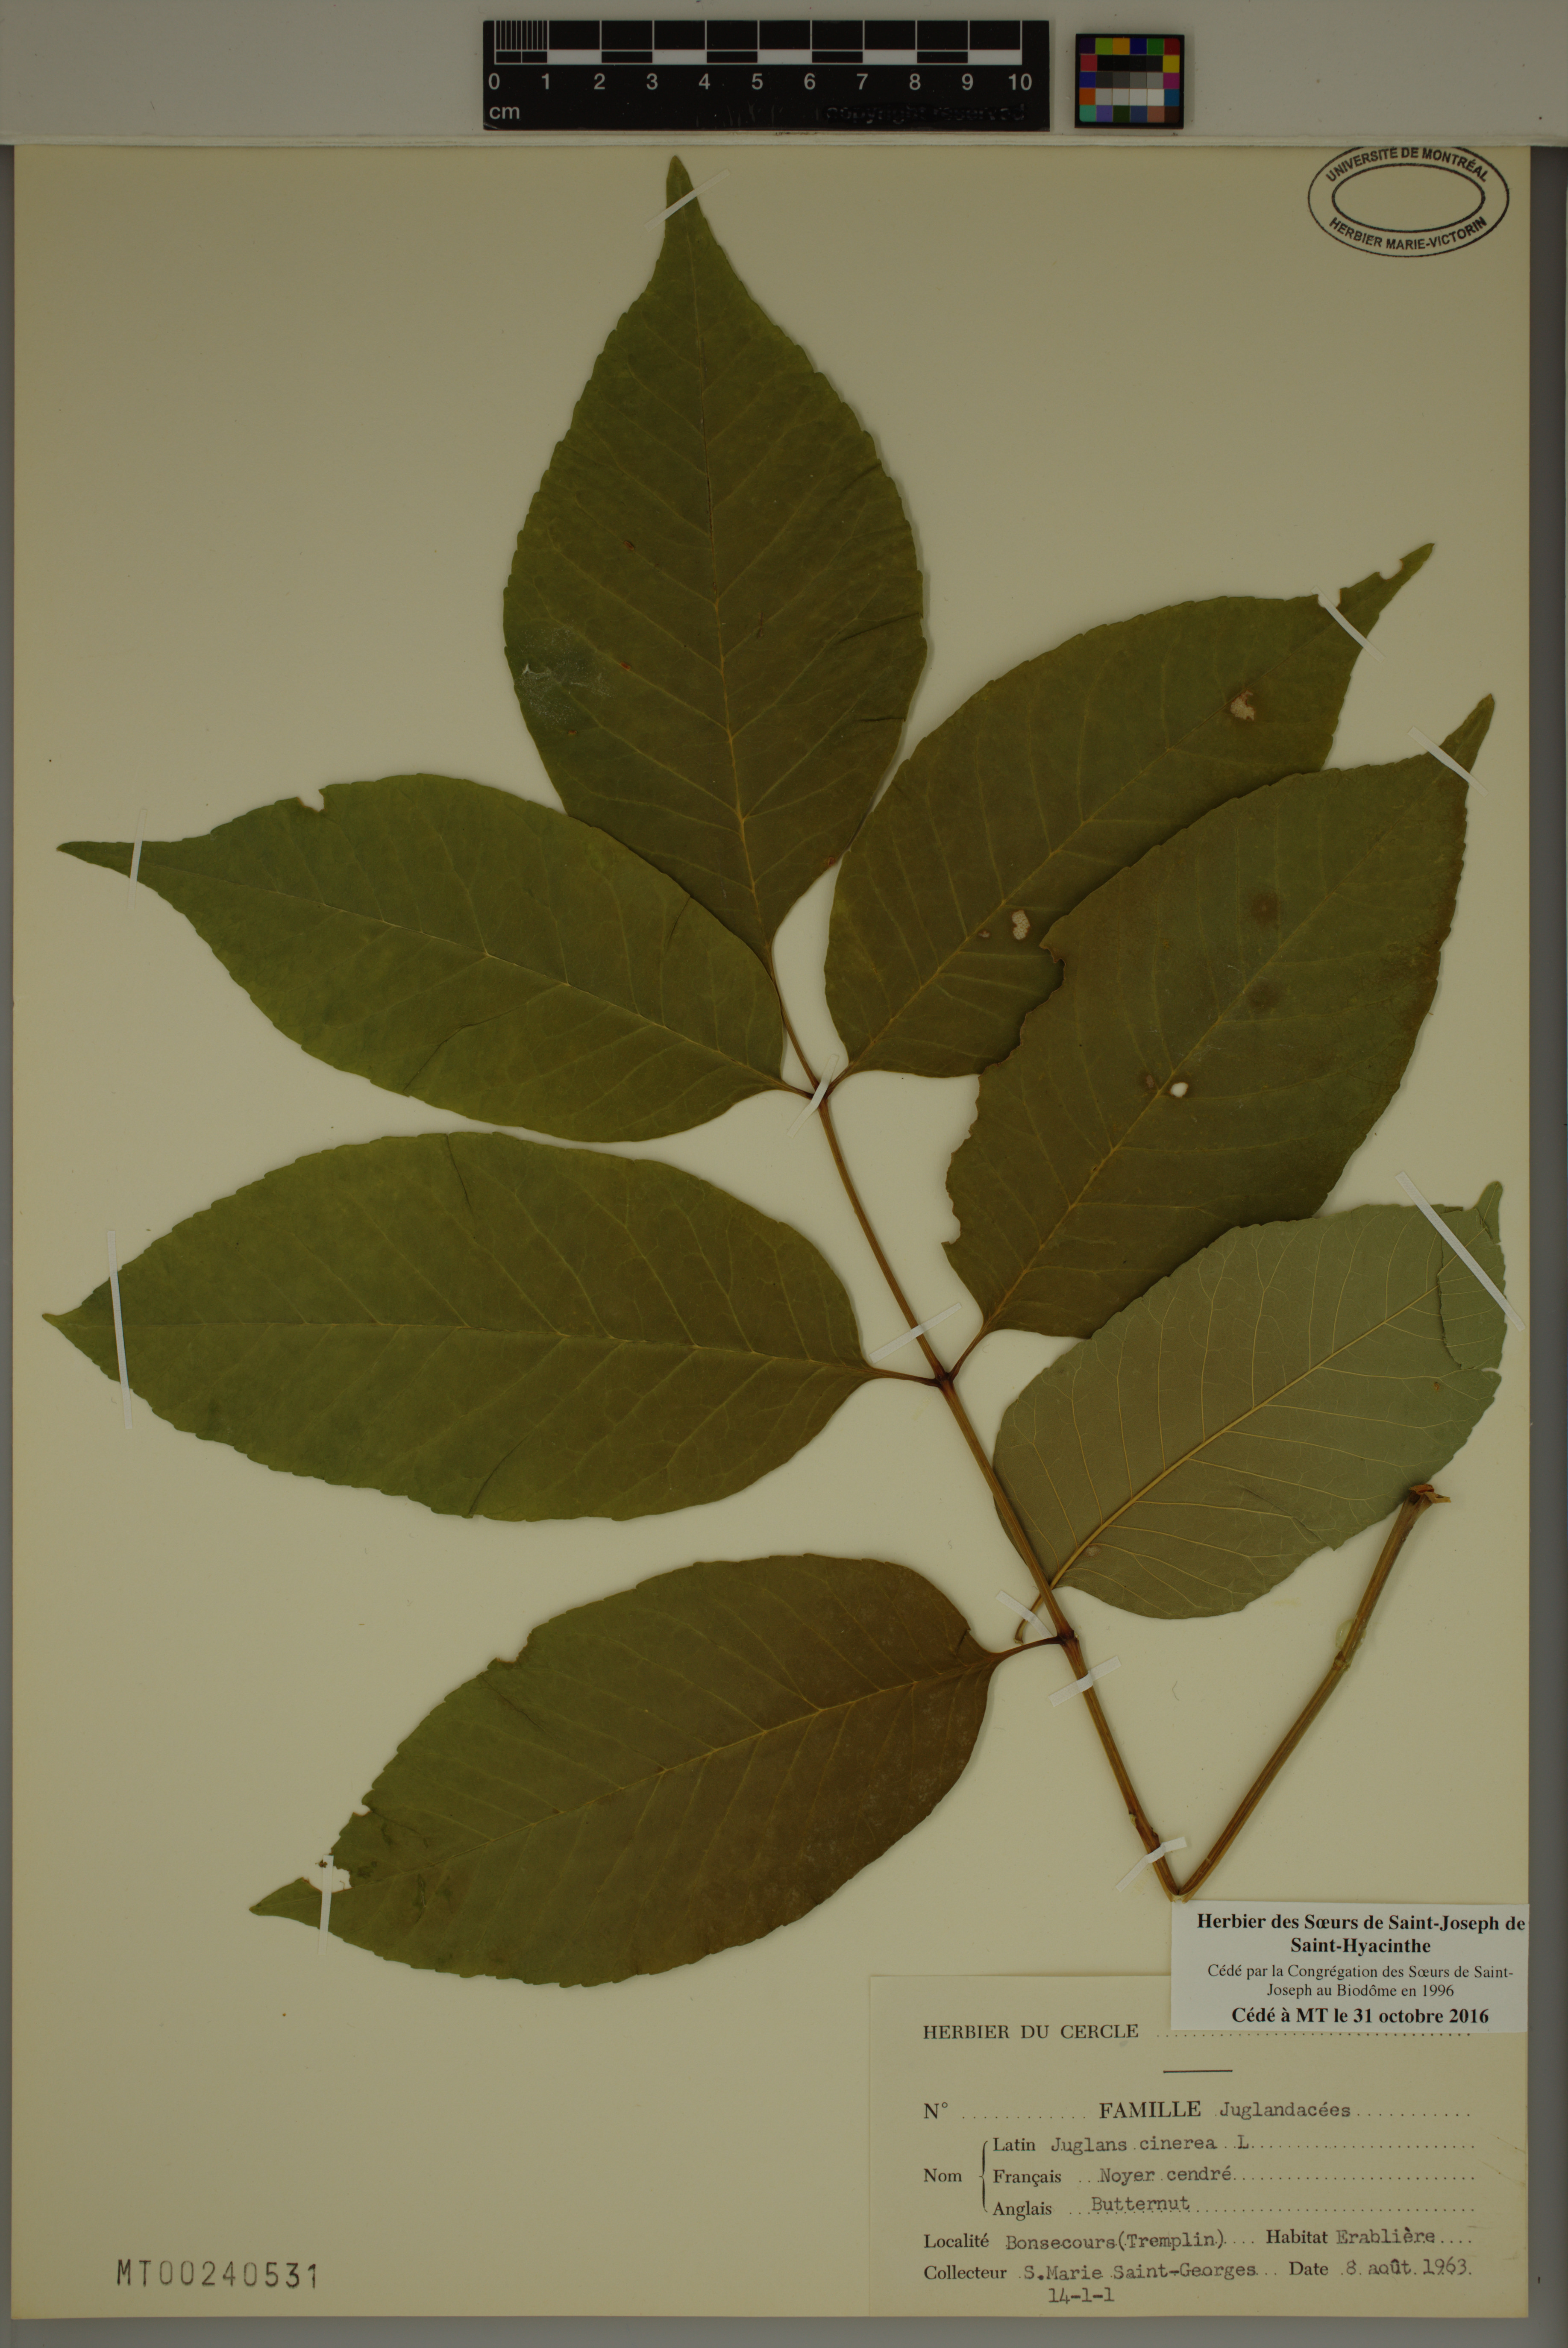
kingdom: Plantae
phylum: Tracheophyta
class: Magnoliopsida
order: Fagales
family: Juglandaceae
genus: Juglans
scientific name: Juglans cinerea
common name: Butternut
